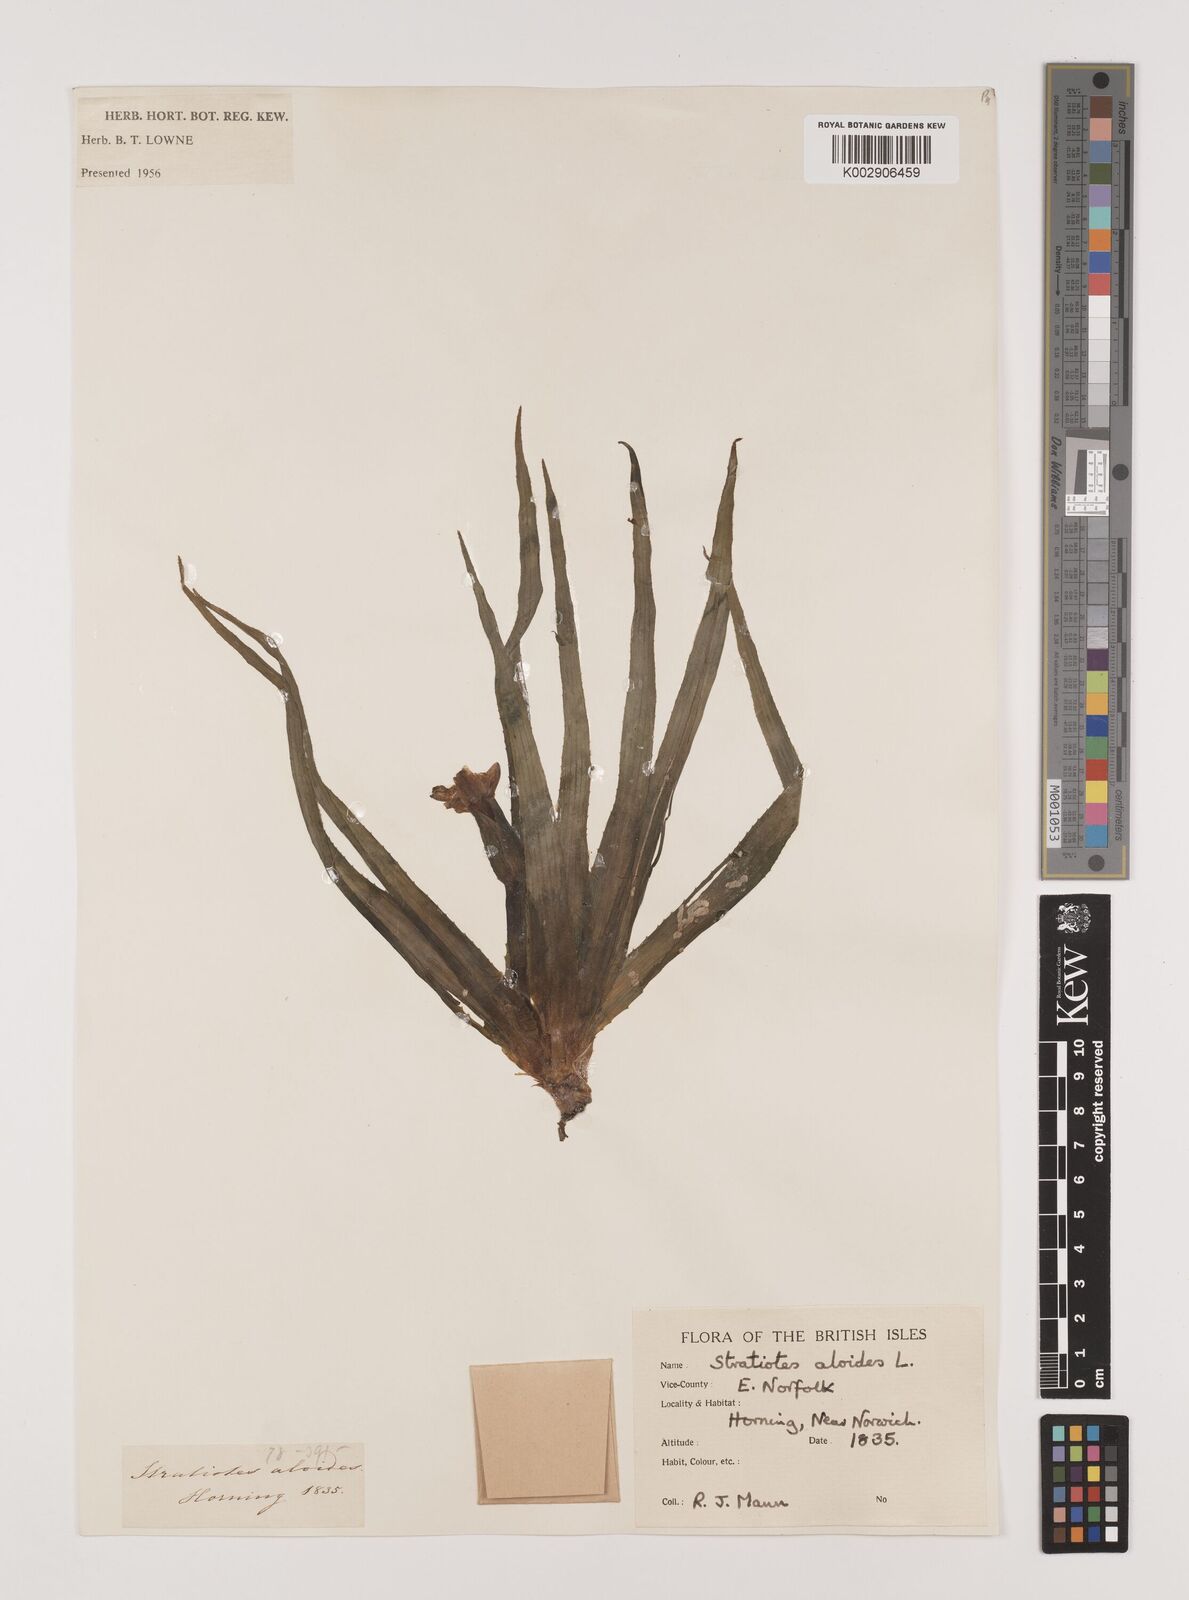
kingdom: Plantae
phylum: Tracheophyta
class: Liliopsida
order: Alismatales
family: Hydrocharitaceae
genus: Stratiotes
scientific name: Stratiotes aloides
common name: Water-soldier
